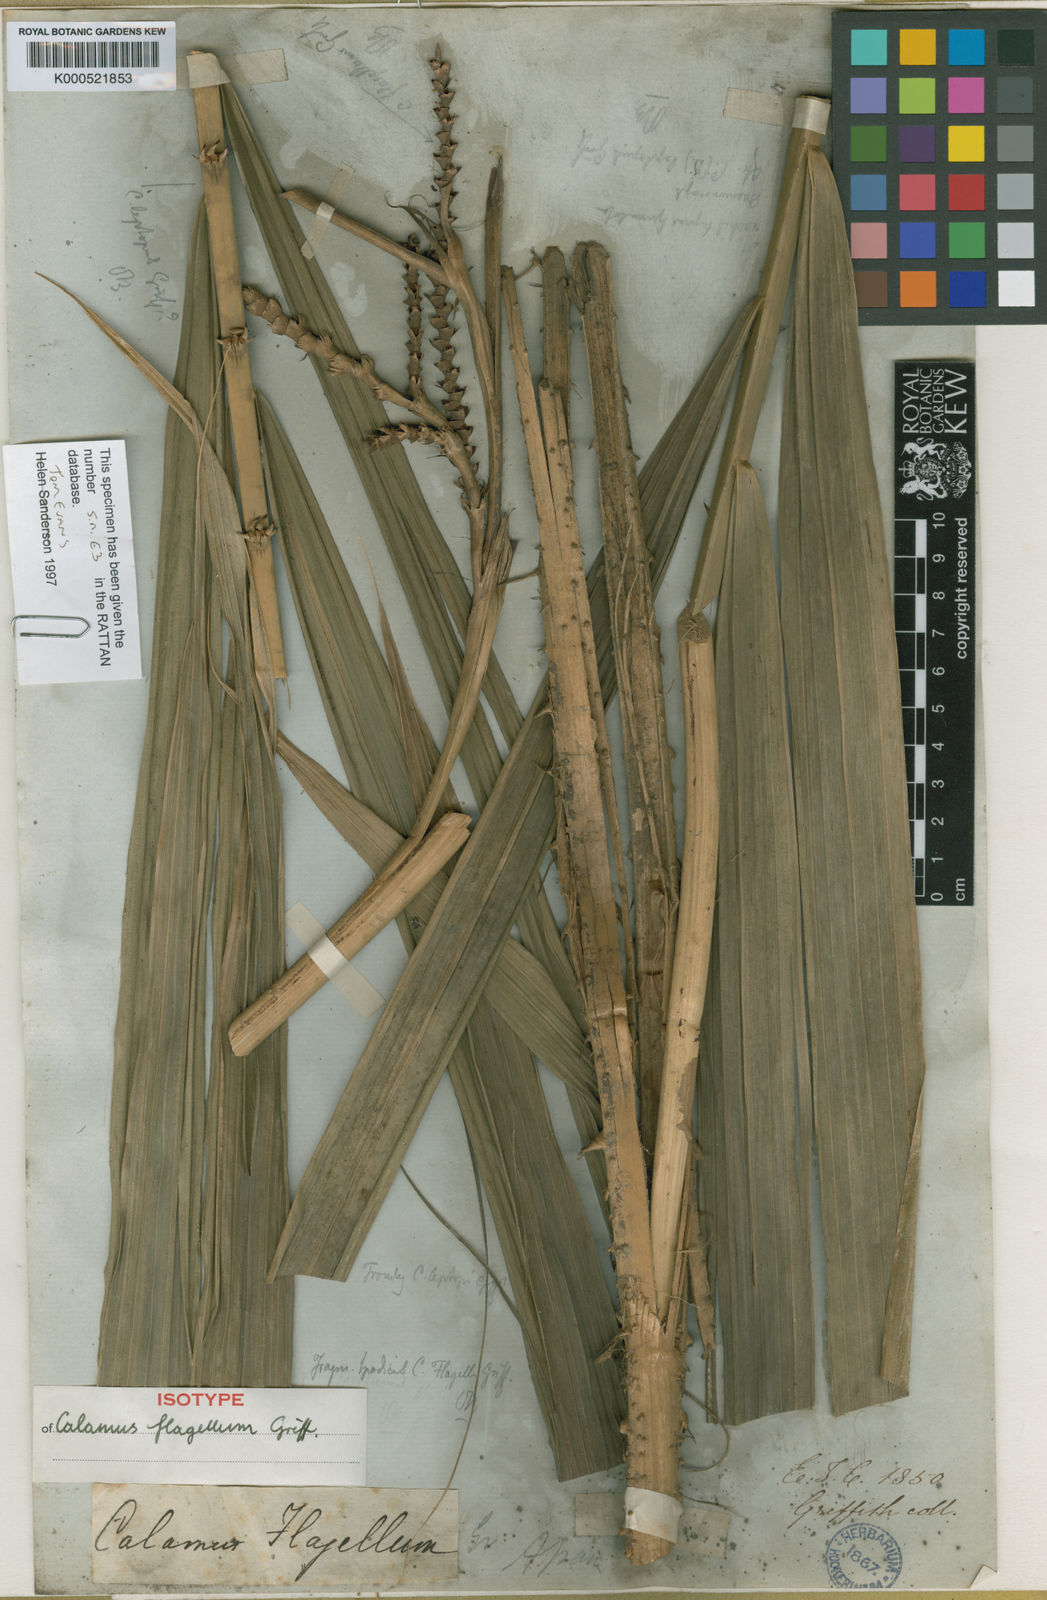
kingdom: Plantae
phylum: Tracheophyta
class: Liliopsida
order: Arecales
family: Arecaceae
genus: Calamus
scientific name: Calamus
